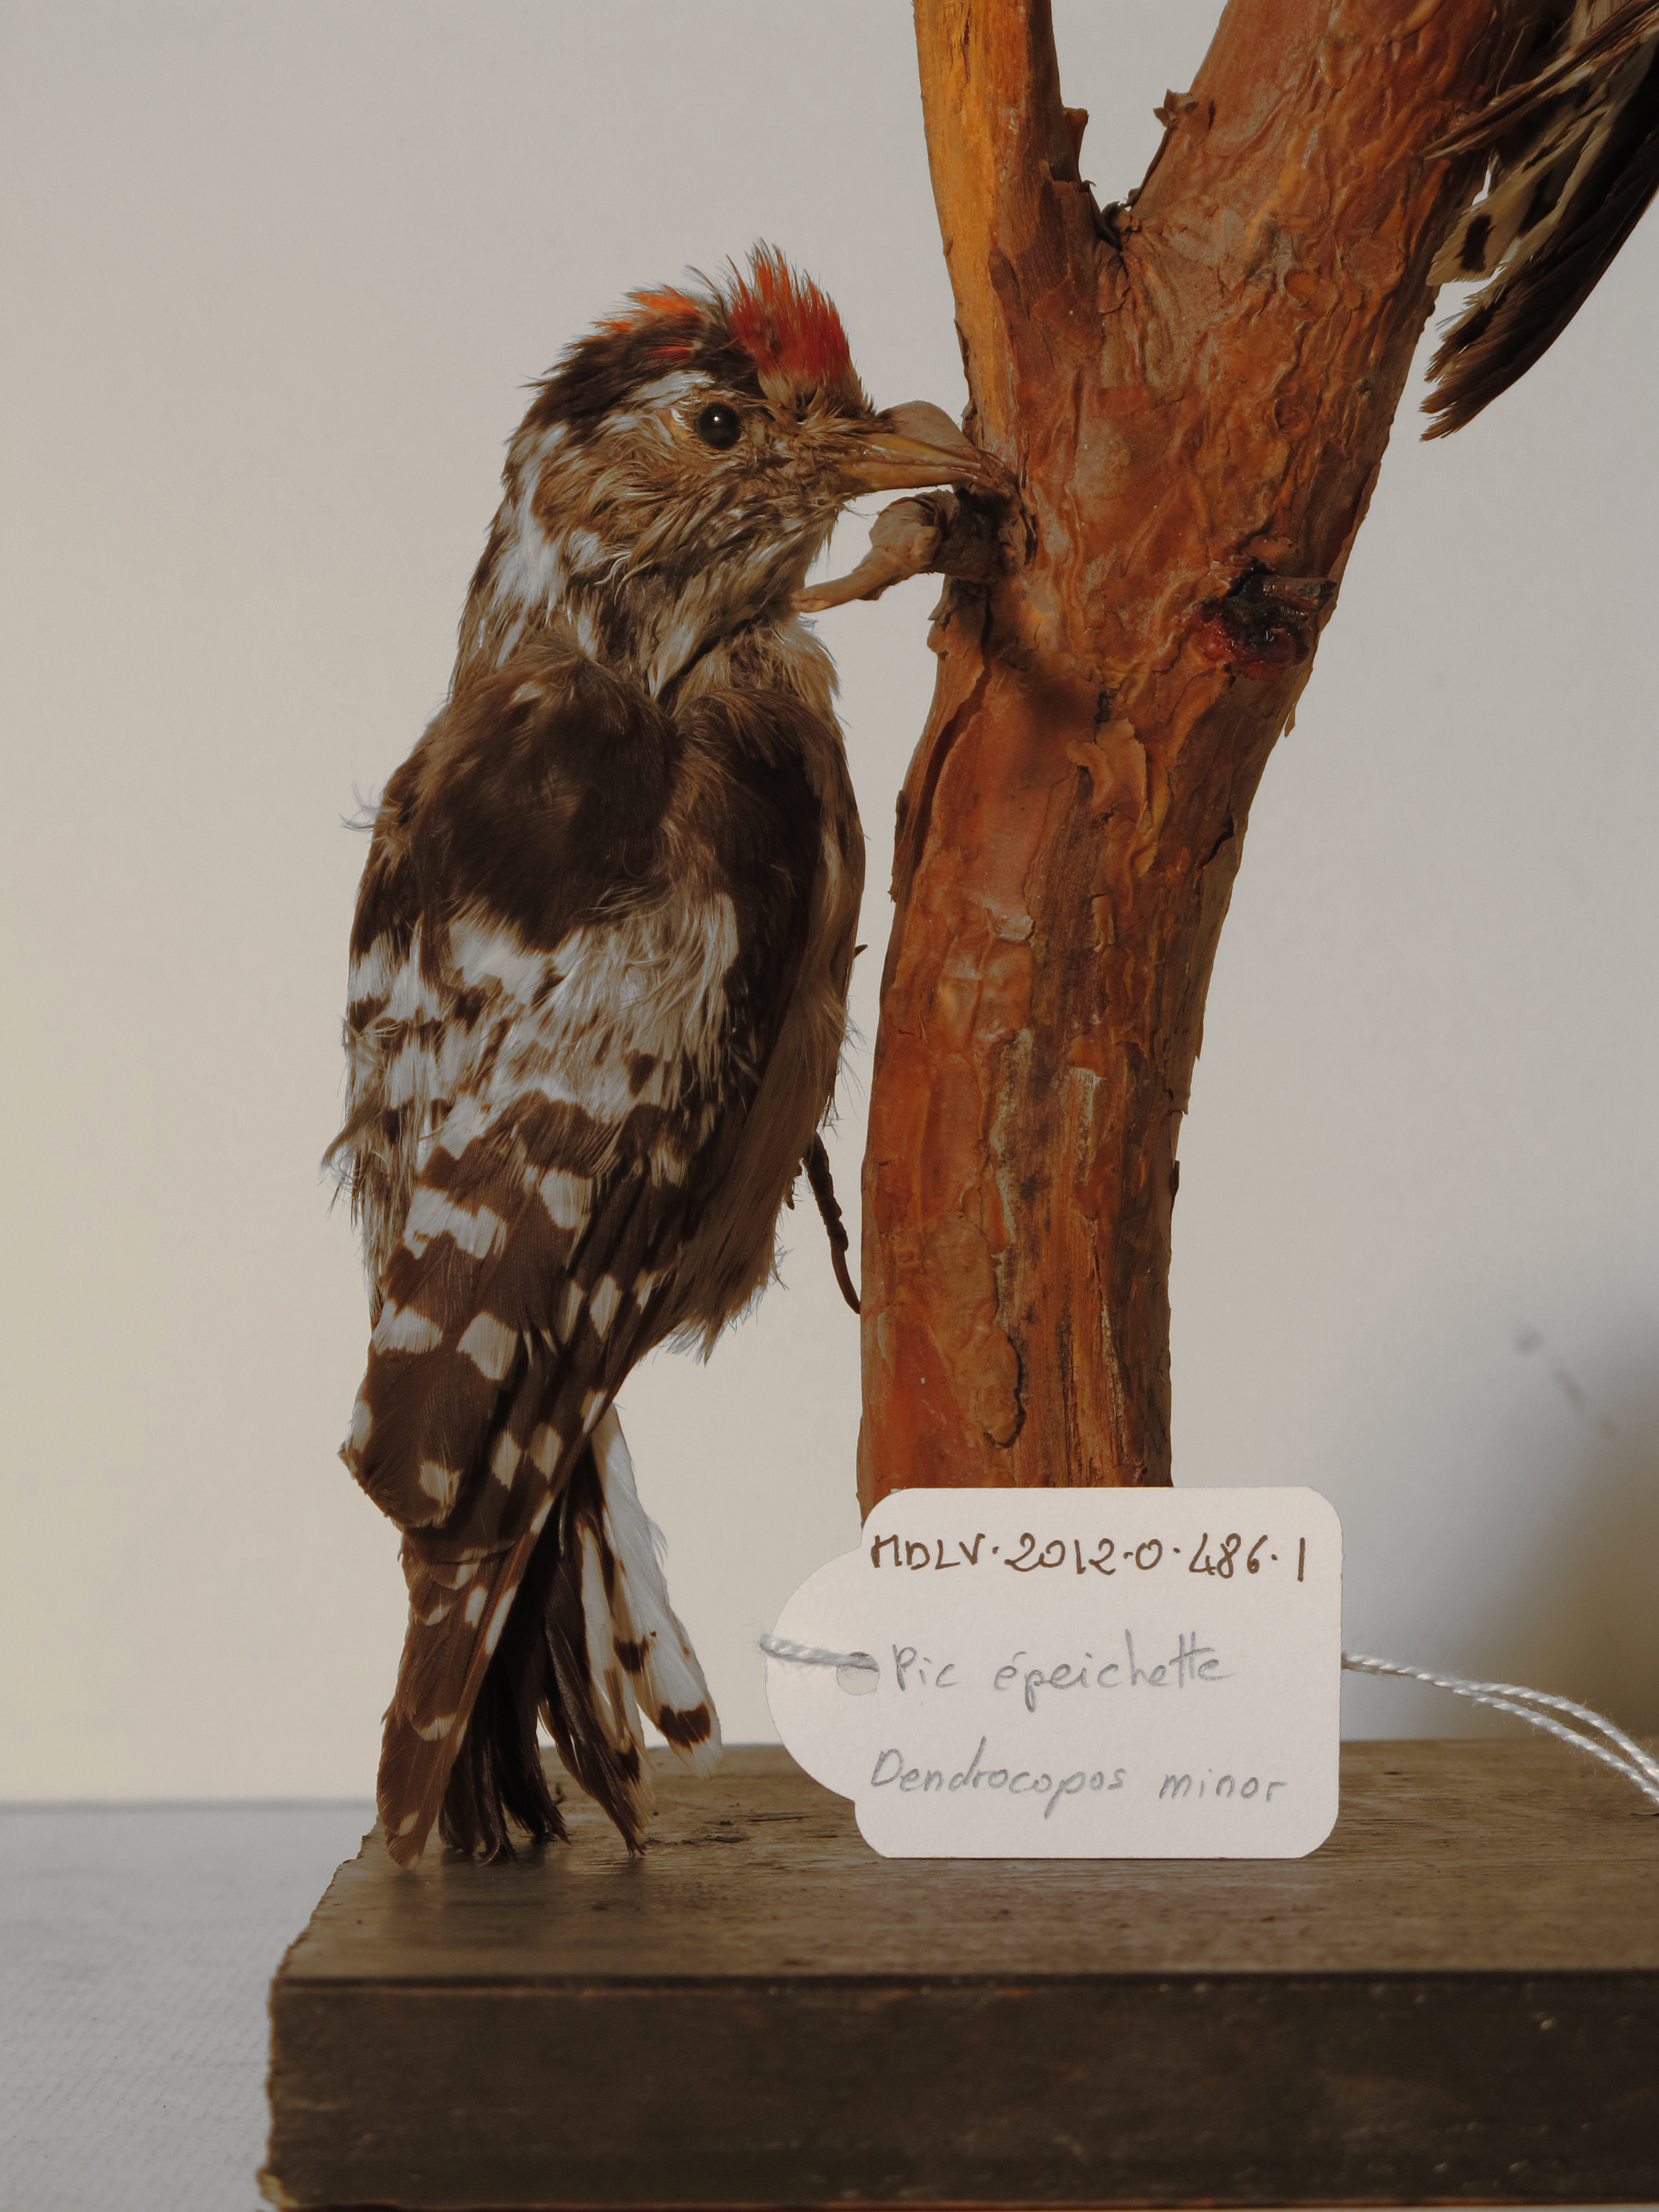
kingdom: Animalia
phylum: Chordata
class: Aves
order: Piciformes
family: Picidae
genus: Dryobates
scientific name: Dryobates minor
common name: Lesser Spotted Woodpecker
